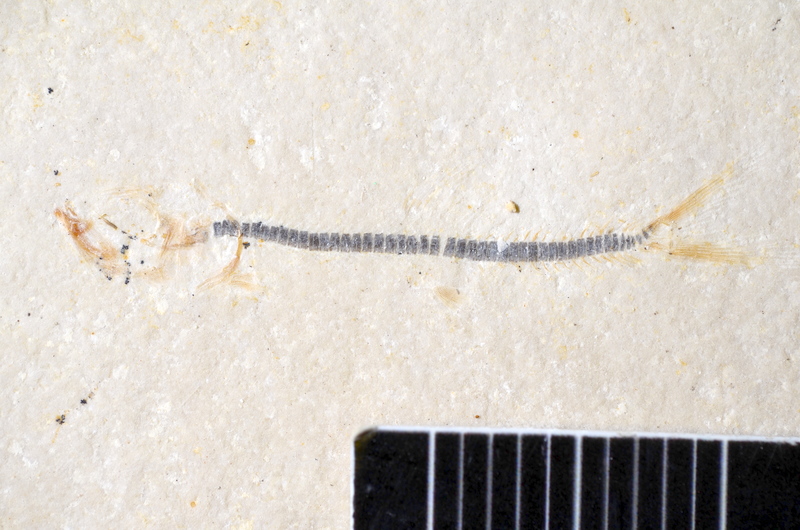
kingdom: Animalia
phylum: Chordata
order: Salmoniformes
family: Orthogonikleithridae
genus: Orthogonikleithrus
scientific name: Orthogonikleithrus hoelli
